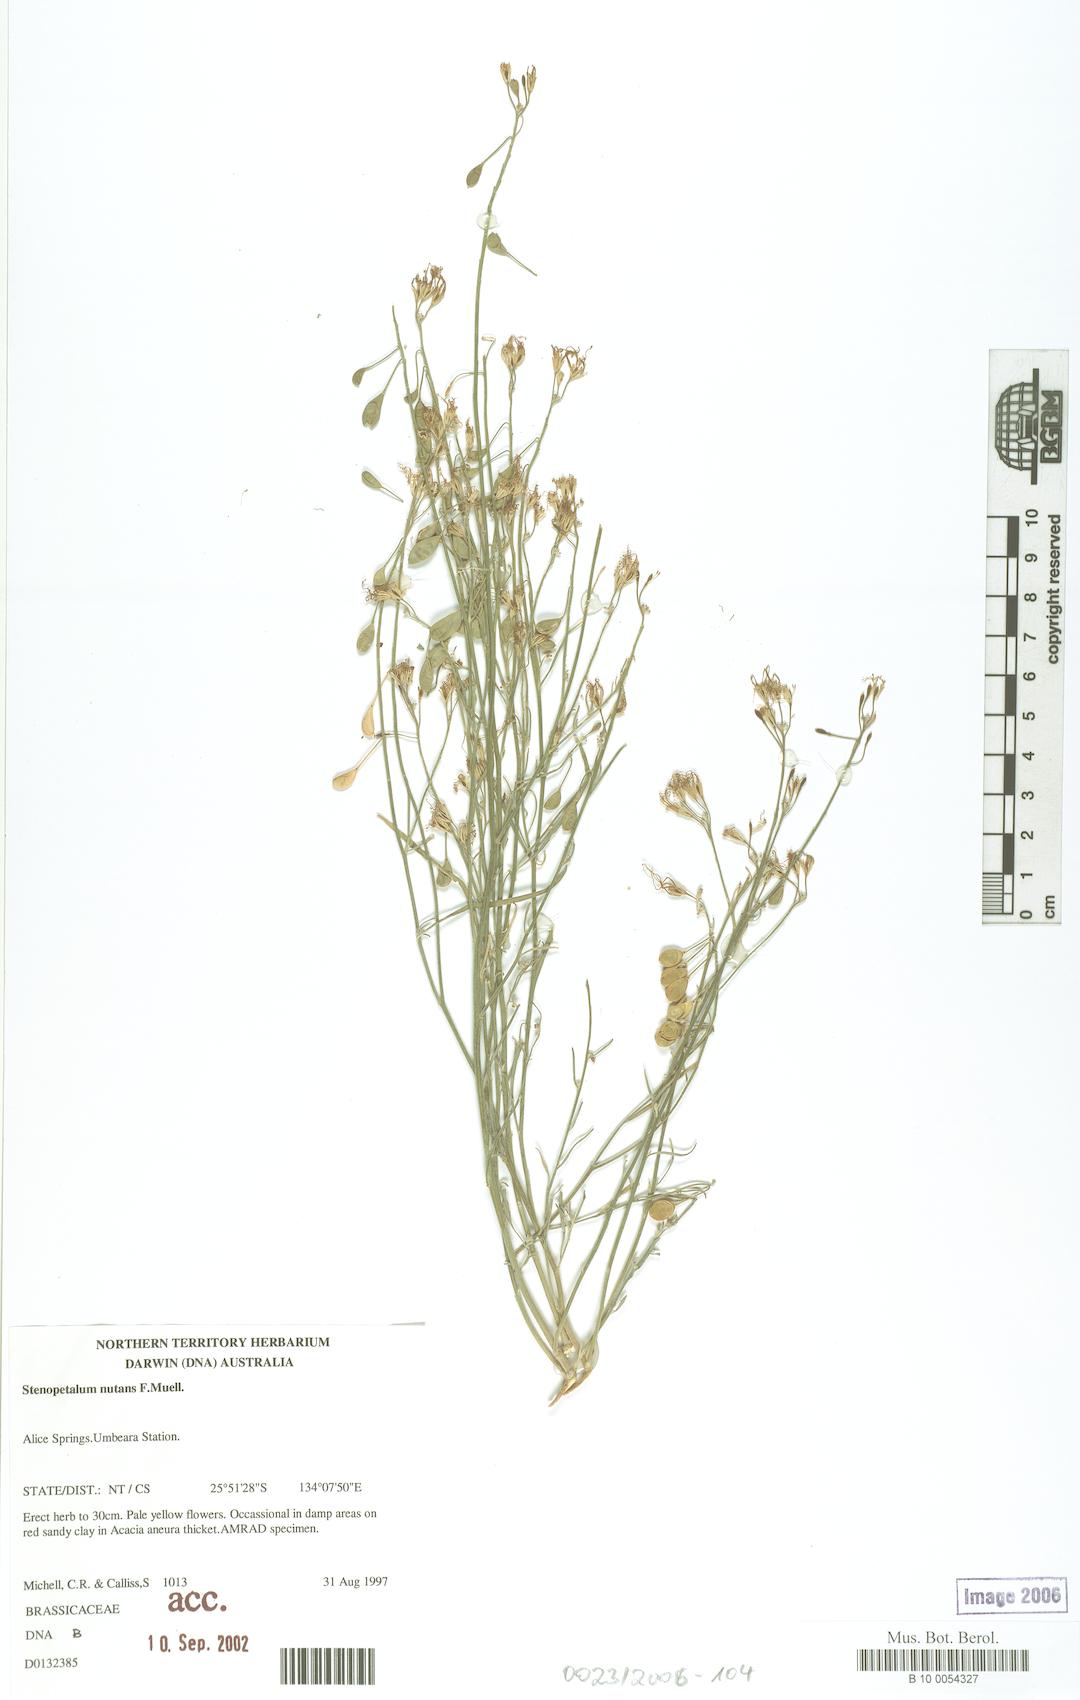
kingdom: Plantae
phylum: Tracheophyta
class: Magnoliopsida
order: Brassicales
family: Brassicaceae
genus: Stenopetalum
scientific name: Stenopetalum decipiens
